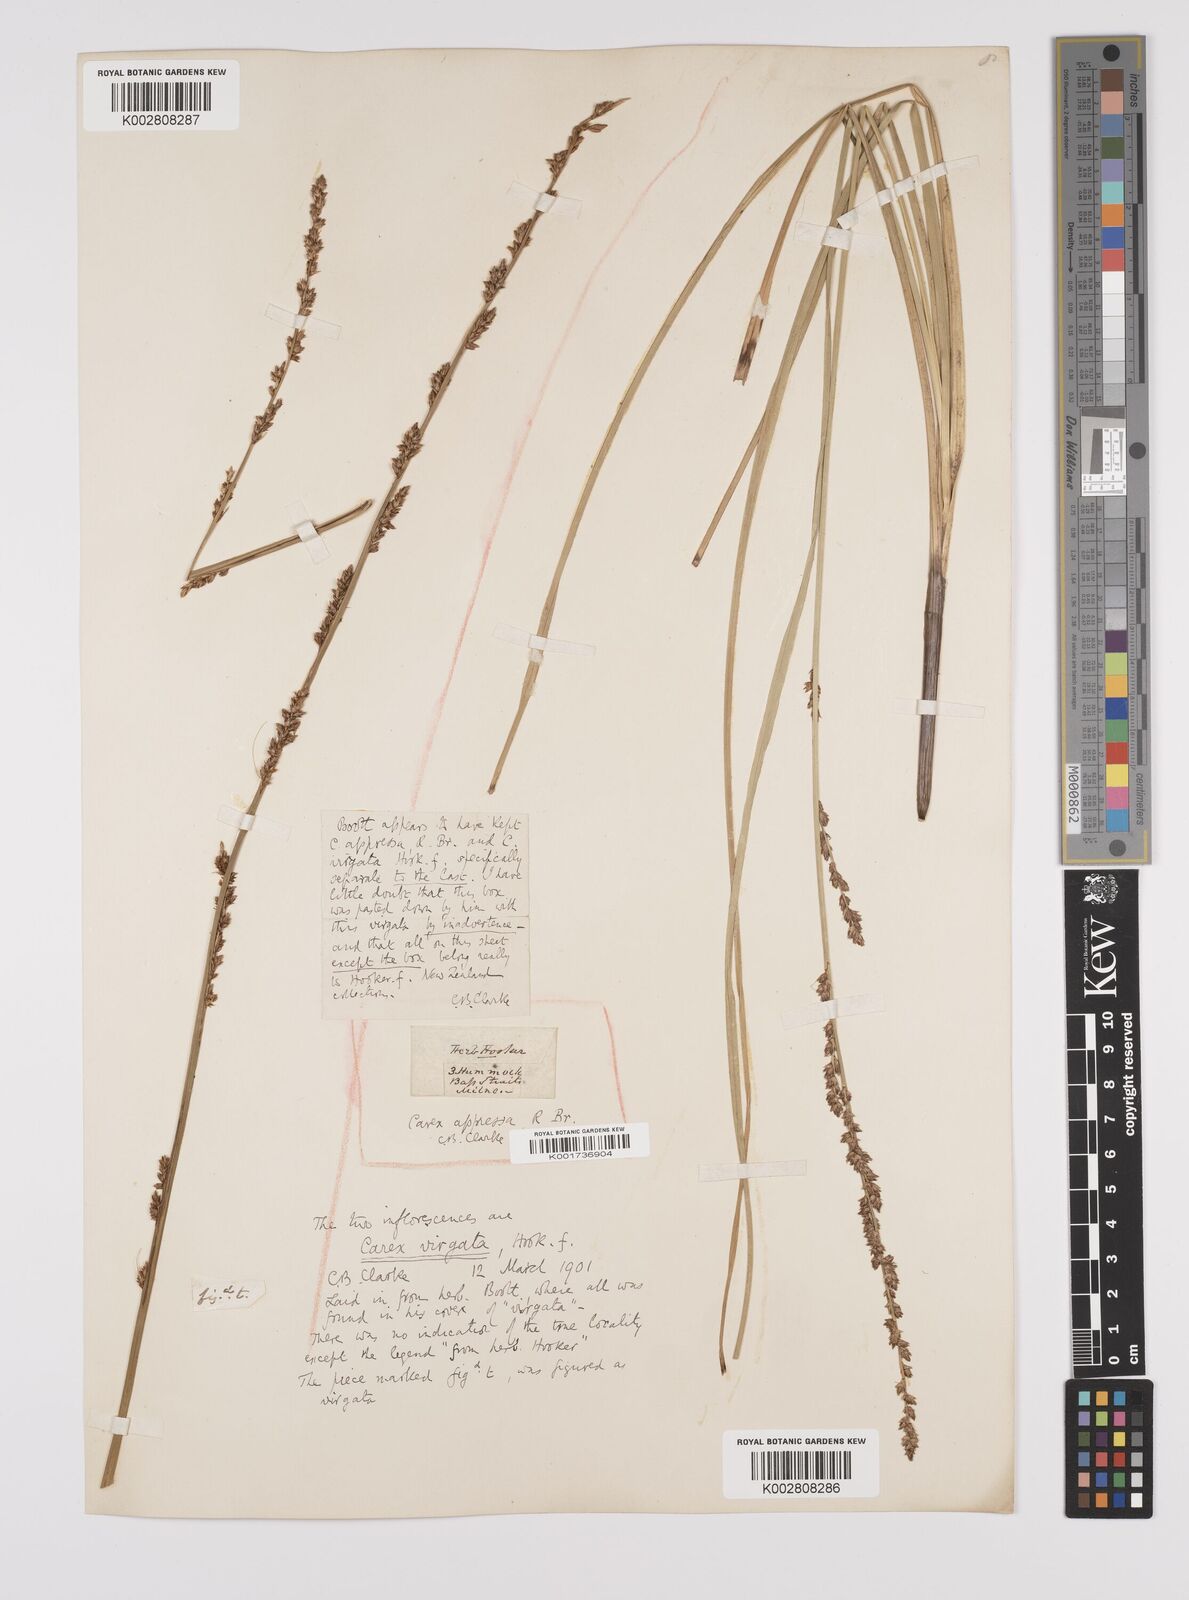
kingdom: Plantae
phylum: Tracheophyta
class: Liliopsida
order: Poales
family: Cyperaceae
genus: Carex
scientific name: Carex appressa
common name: Tussock sedge
